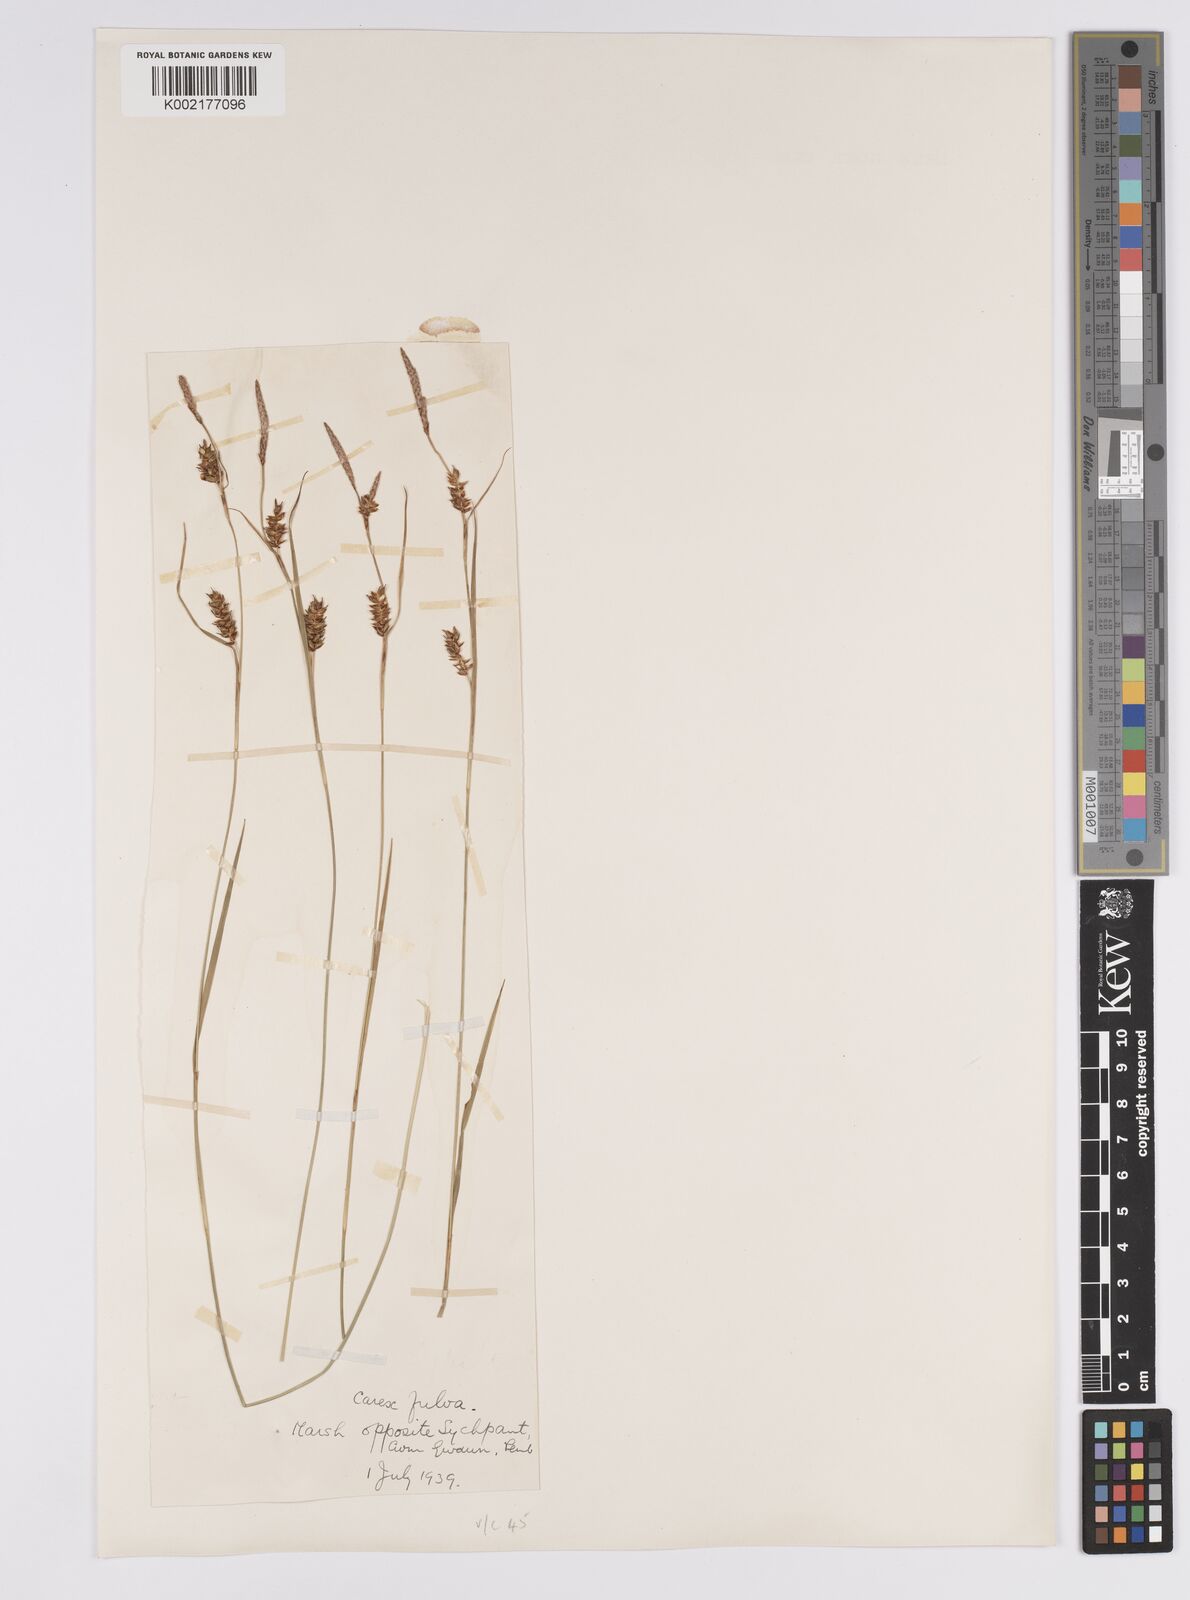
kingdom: Plantae
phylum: Tracheophyta
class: Liliopsida
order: Poales
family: Cyperaceae
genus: Carex
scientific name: Carex hostiana
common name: Tawny sedge
